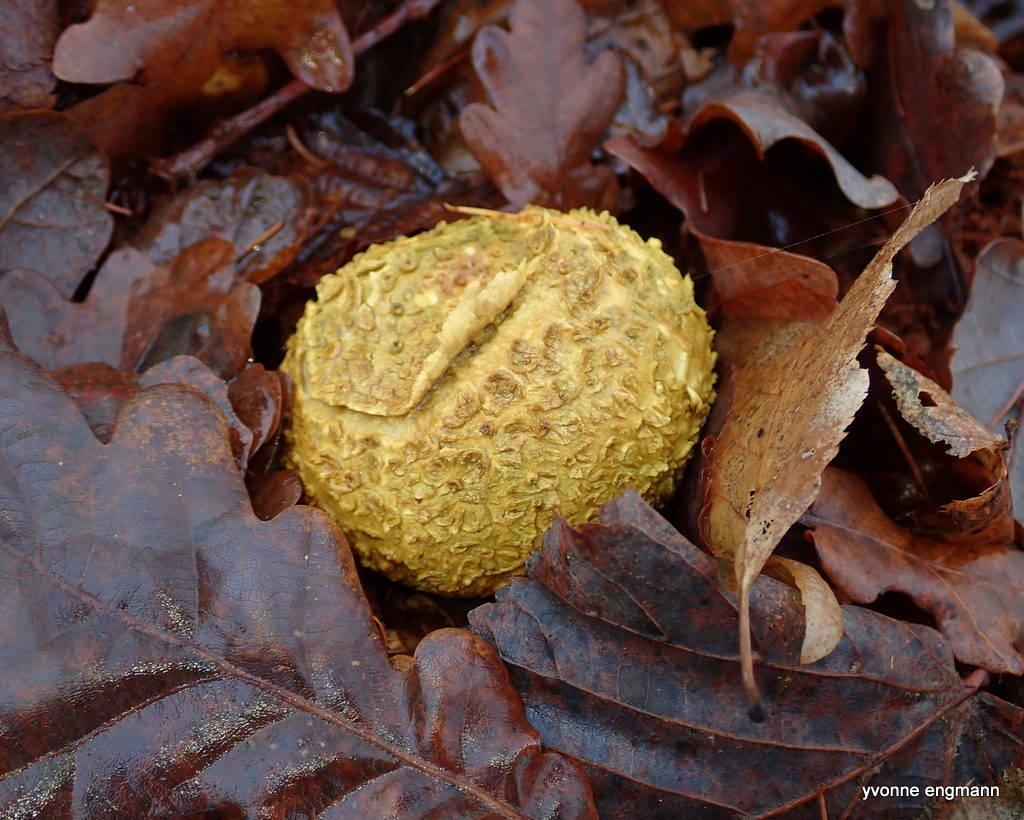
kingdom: Fungi
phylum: Basidiomycota
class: Agaricomycetes
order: Boletales
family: Sclerodermataceae
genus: Scleroderma
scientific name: Scleroderma citrinum
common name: almindelig bruskbold
